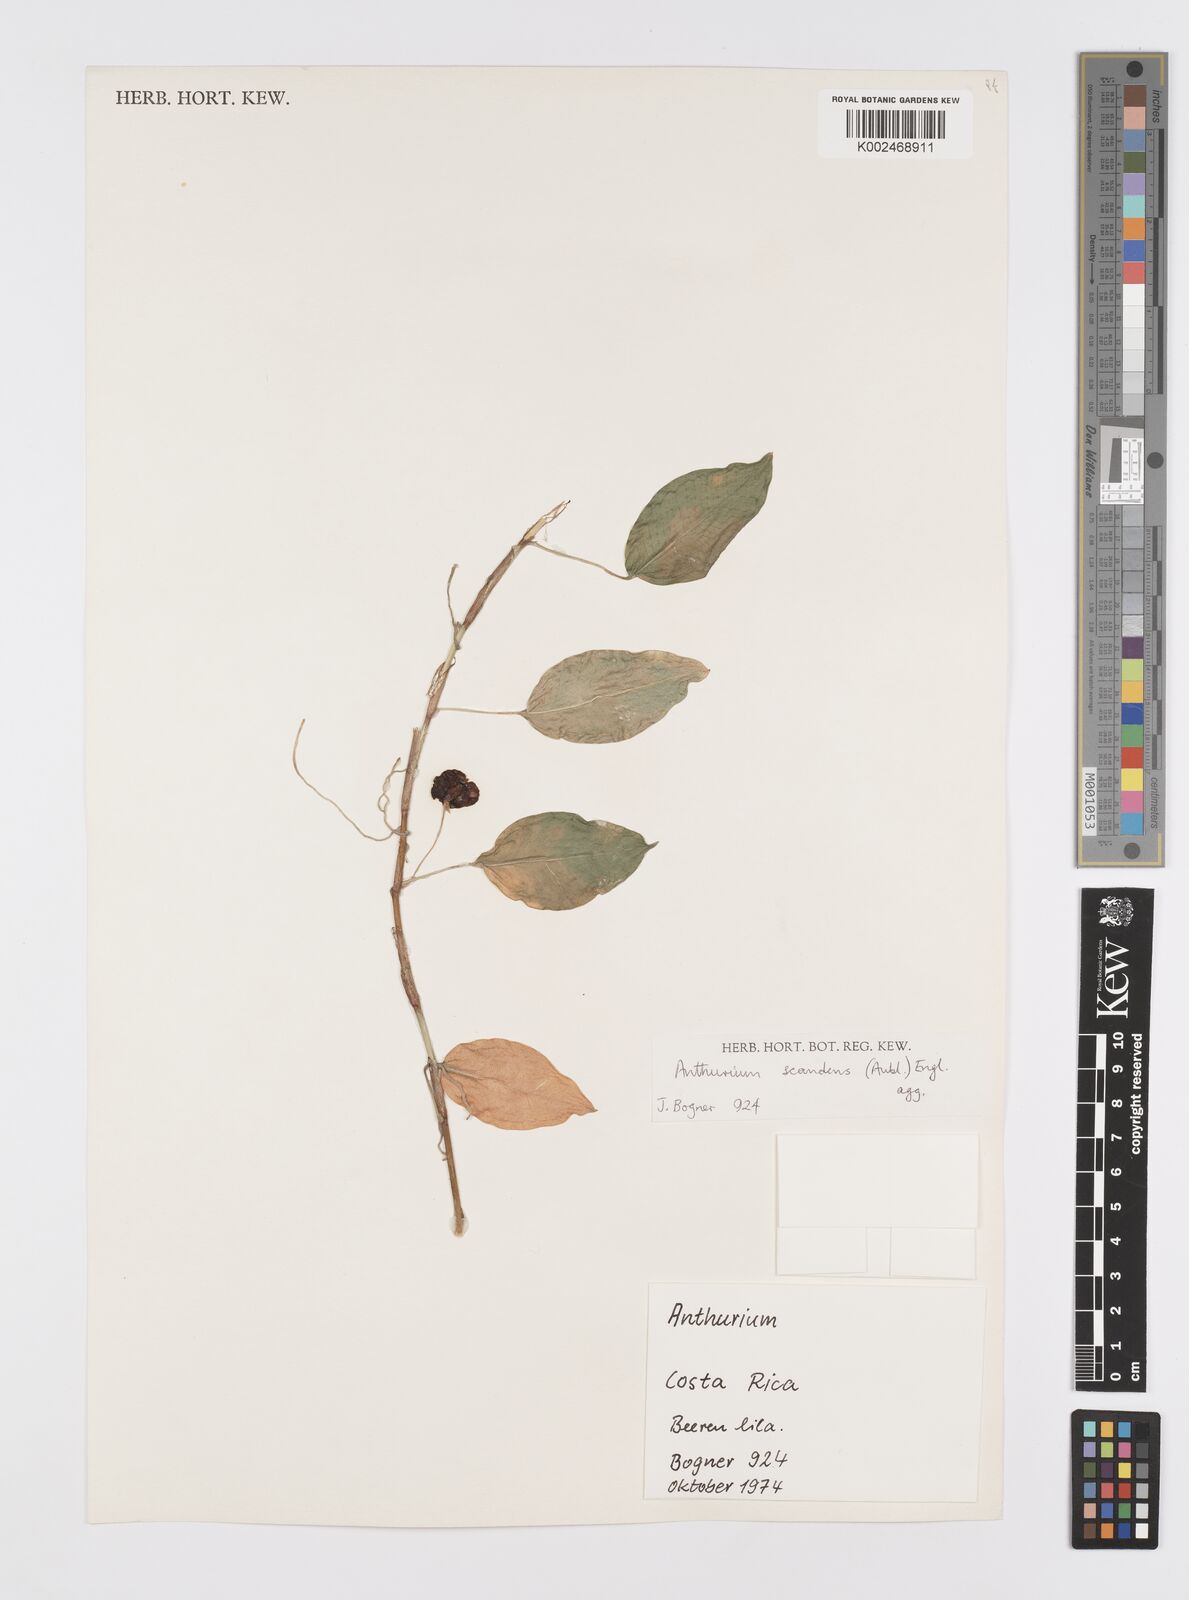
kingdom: Plantae
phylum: Tracheophyta
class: Liliopsida
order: Alismatales
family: Araceae
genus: Anthurium
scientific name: Anthurium scandens
